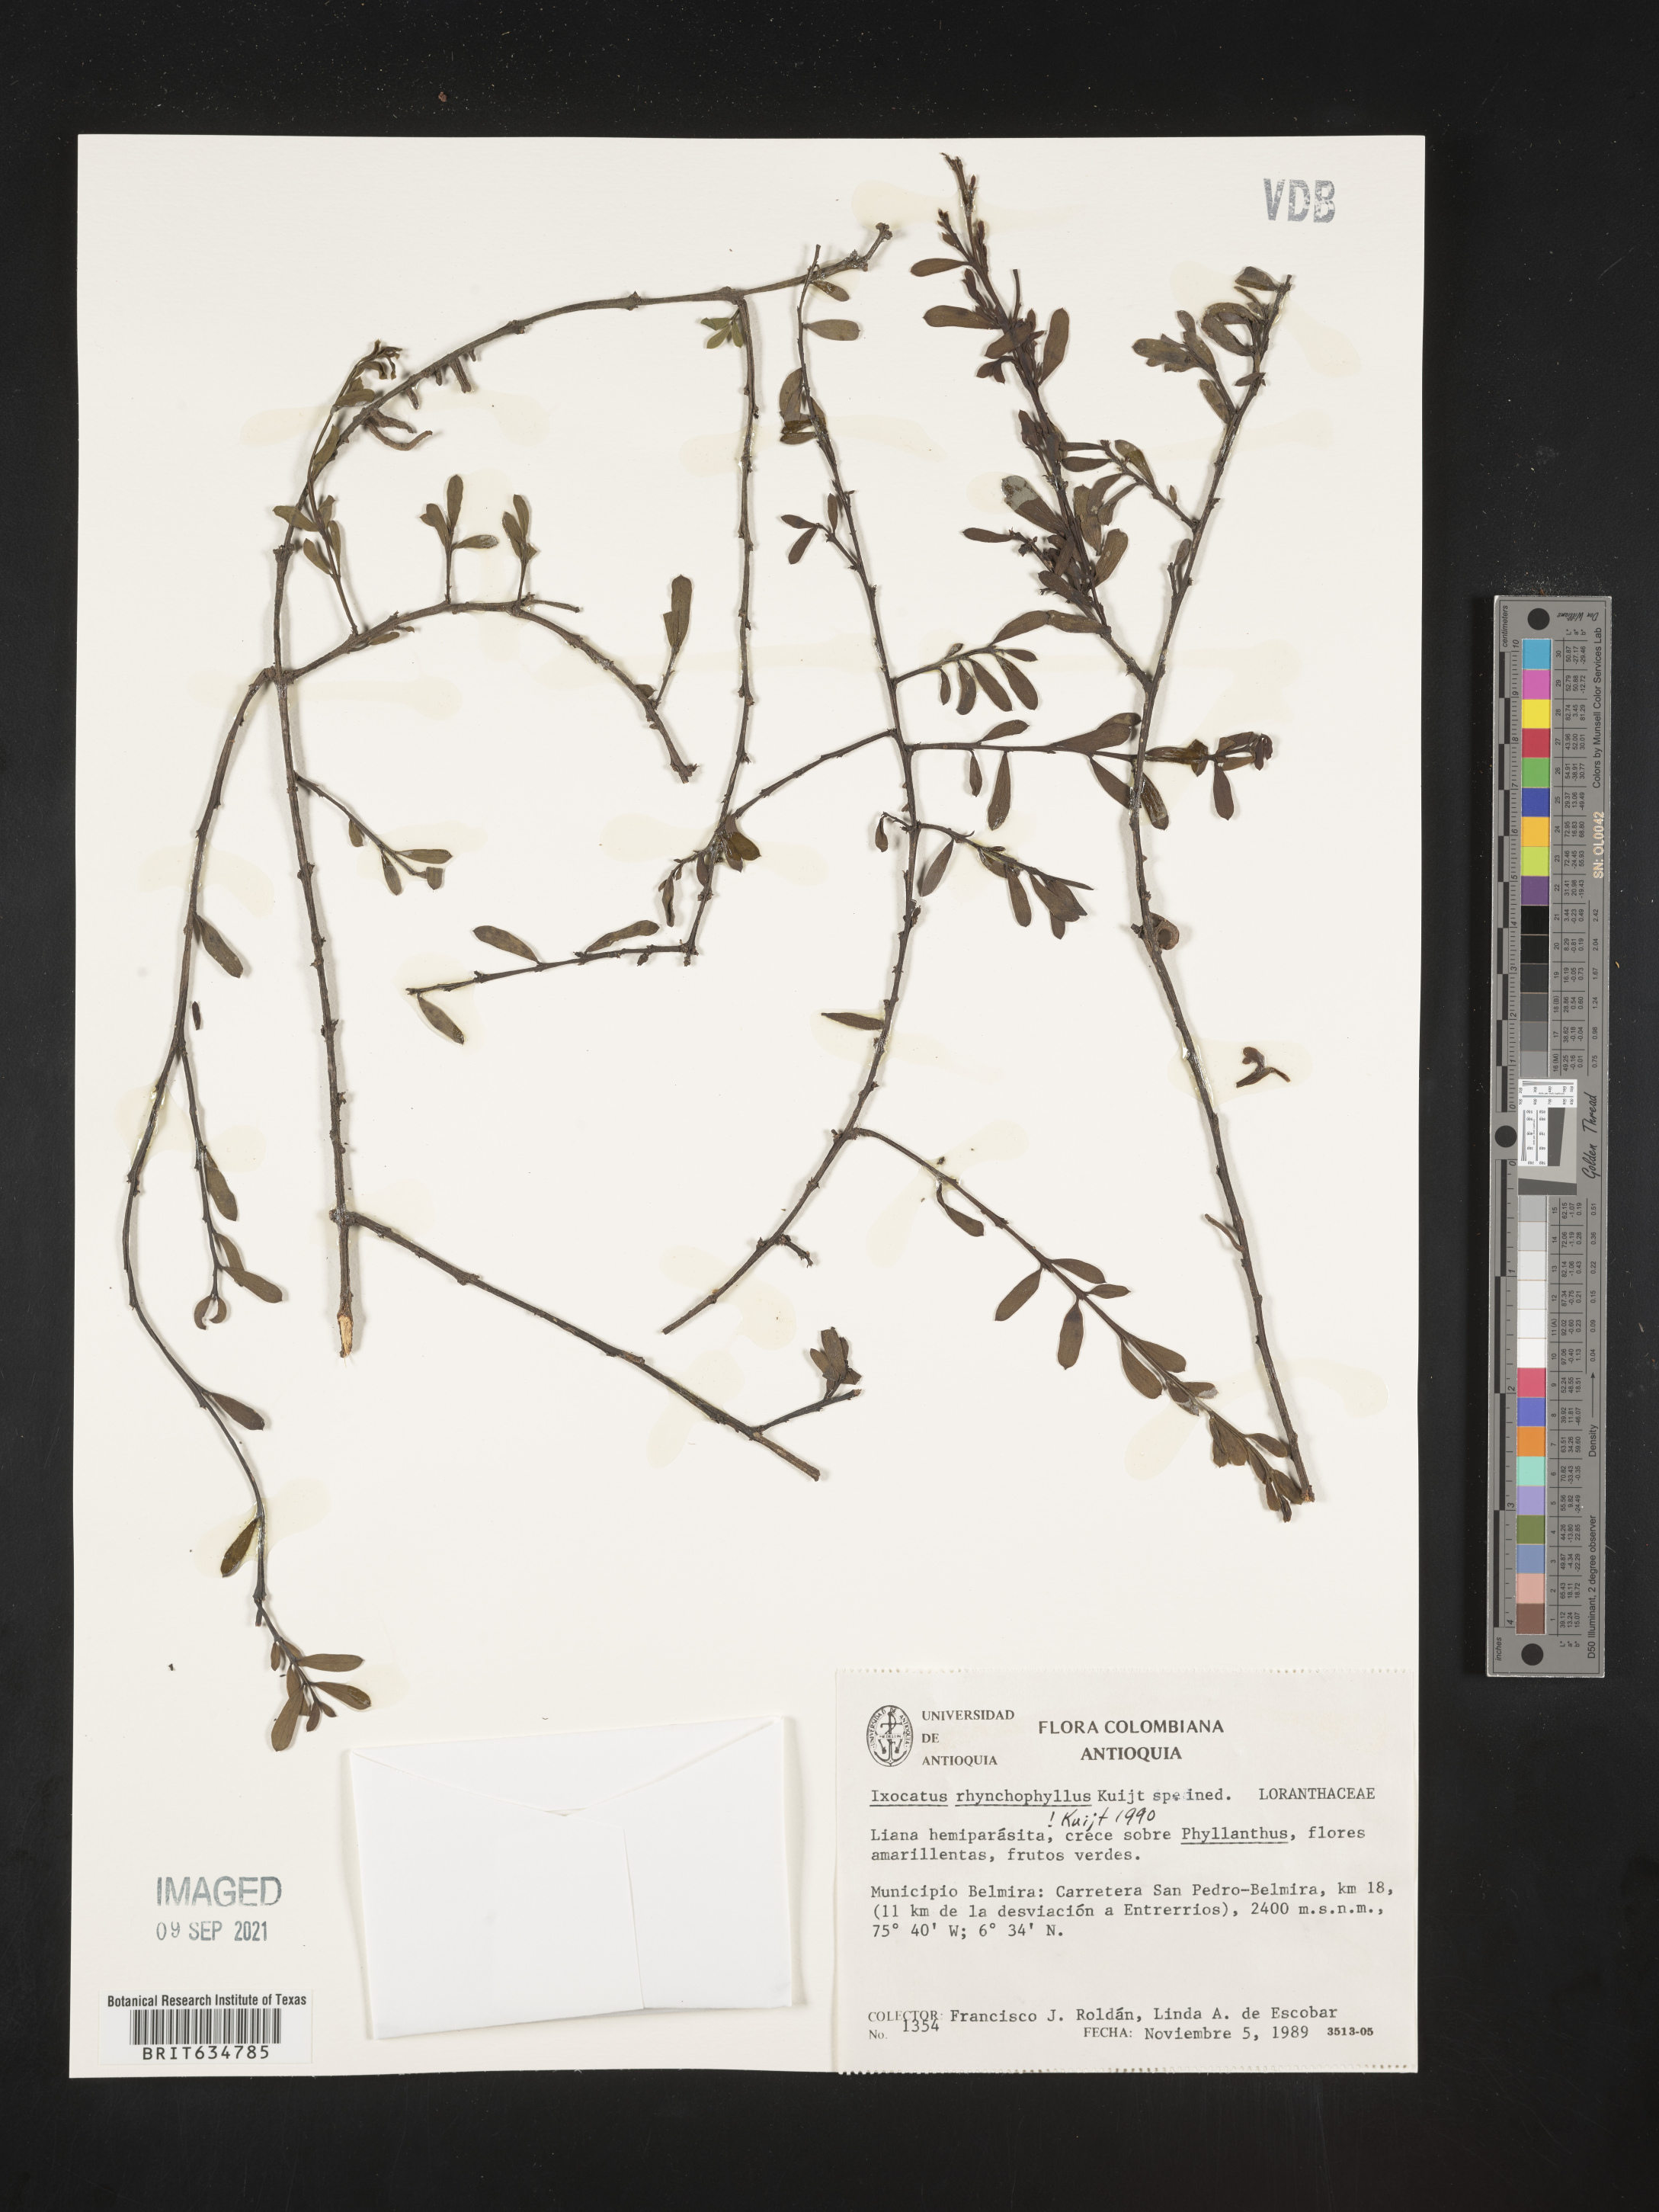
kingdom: Plantae
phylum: Tracheophyta
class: Magnoliopsida
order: Santalales
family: Loranthaceae
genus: Phthirusa
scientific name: Phthirusa
